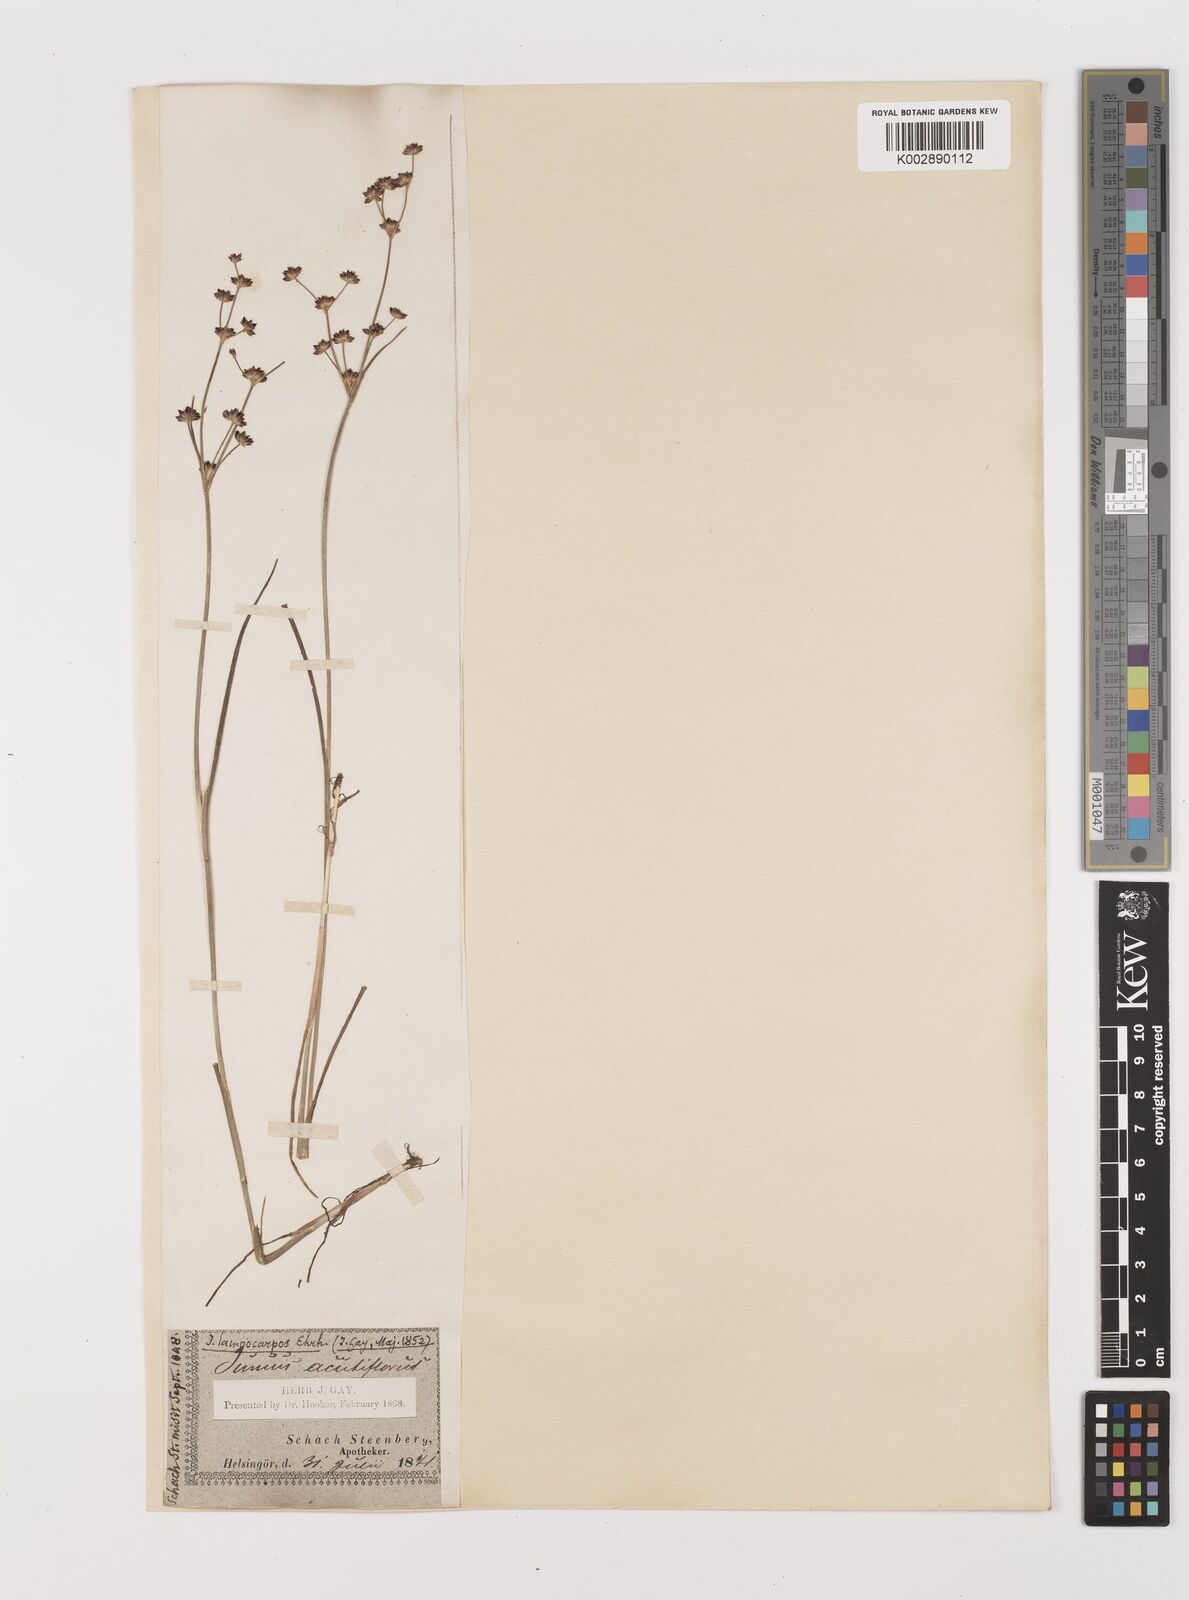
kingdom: Plantae
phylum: Tracheophyta
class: Liliopsida
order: Poales
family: Juncaceae
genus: Juncus
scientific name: Juncus articulatus
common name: Jointed rush
